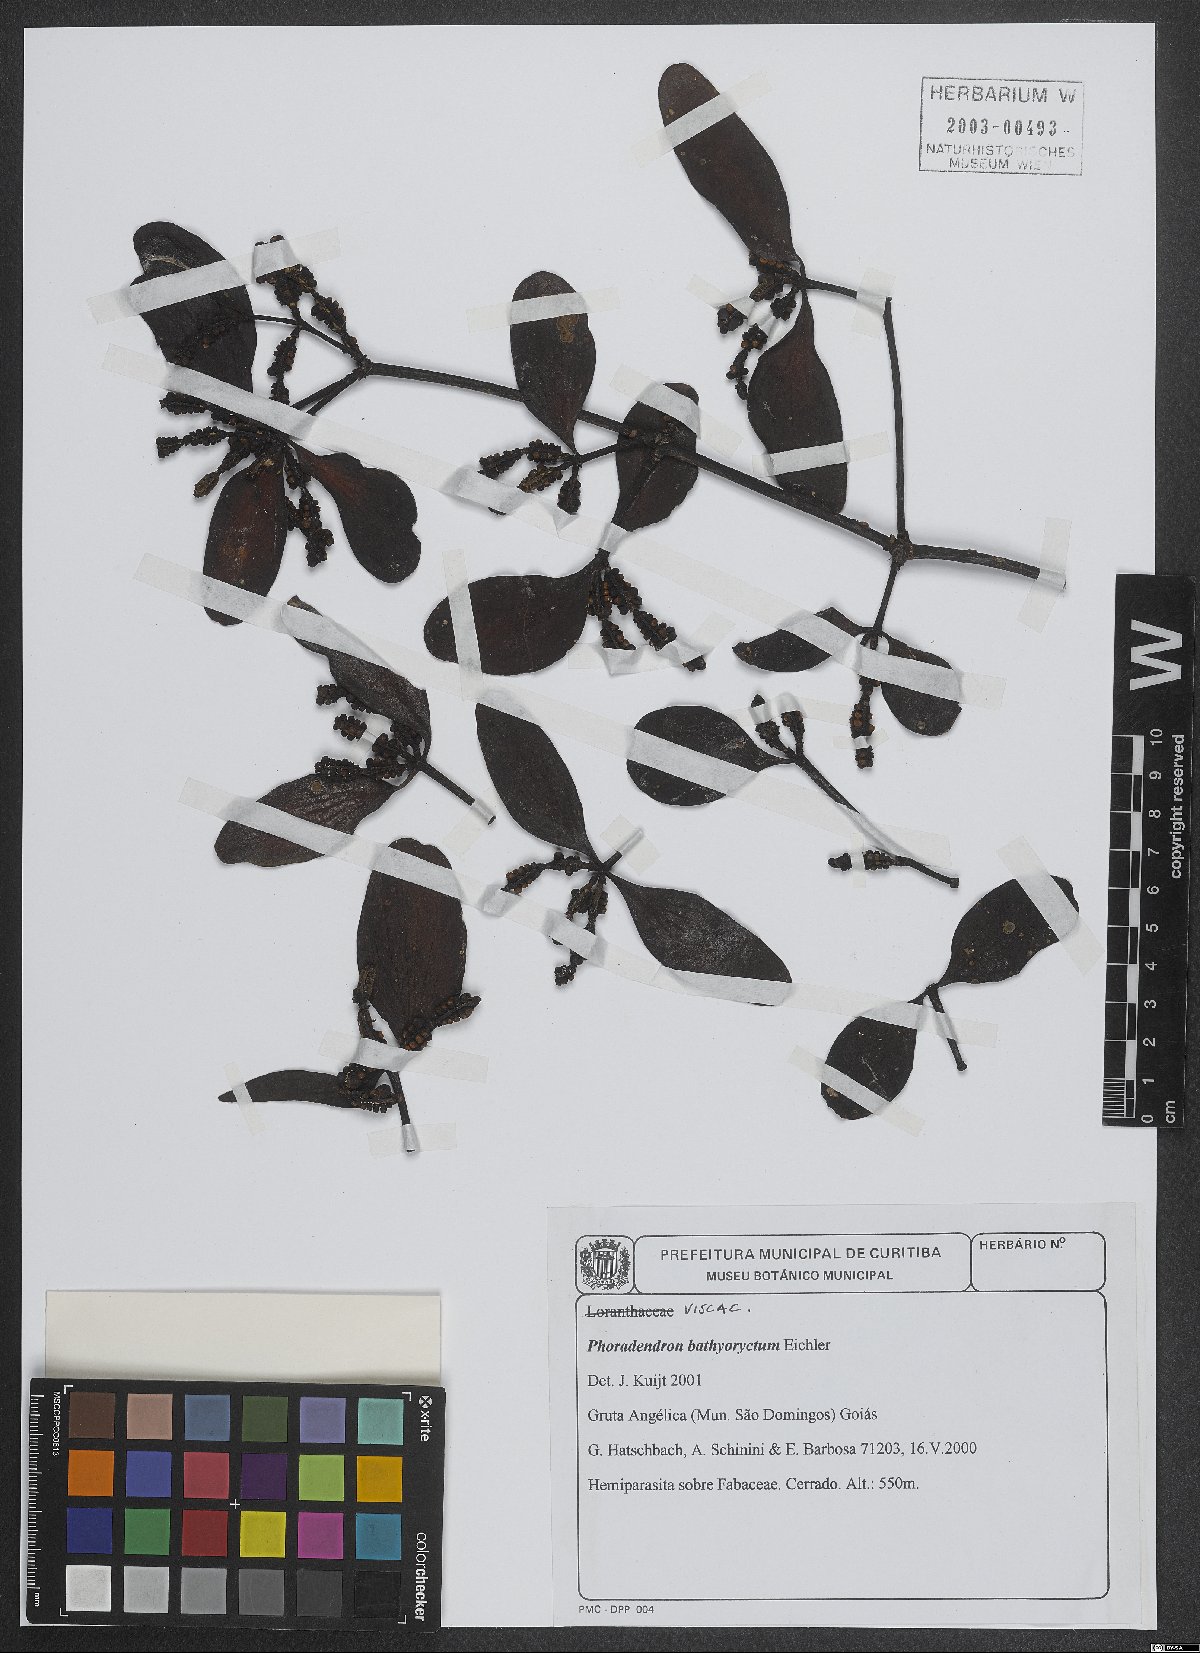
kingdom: Plantae
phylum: Tracheophyta
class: Magnoliopsida
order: Santalales
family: Viscaceae
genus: Phoradendron
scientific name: Phoradendron bathyoryctum
